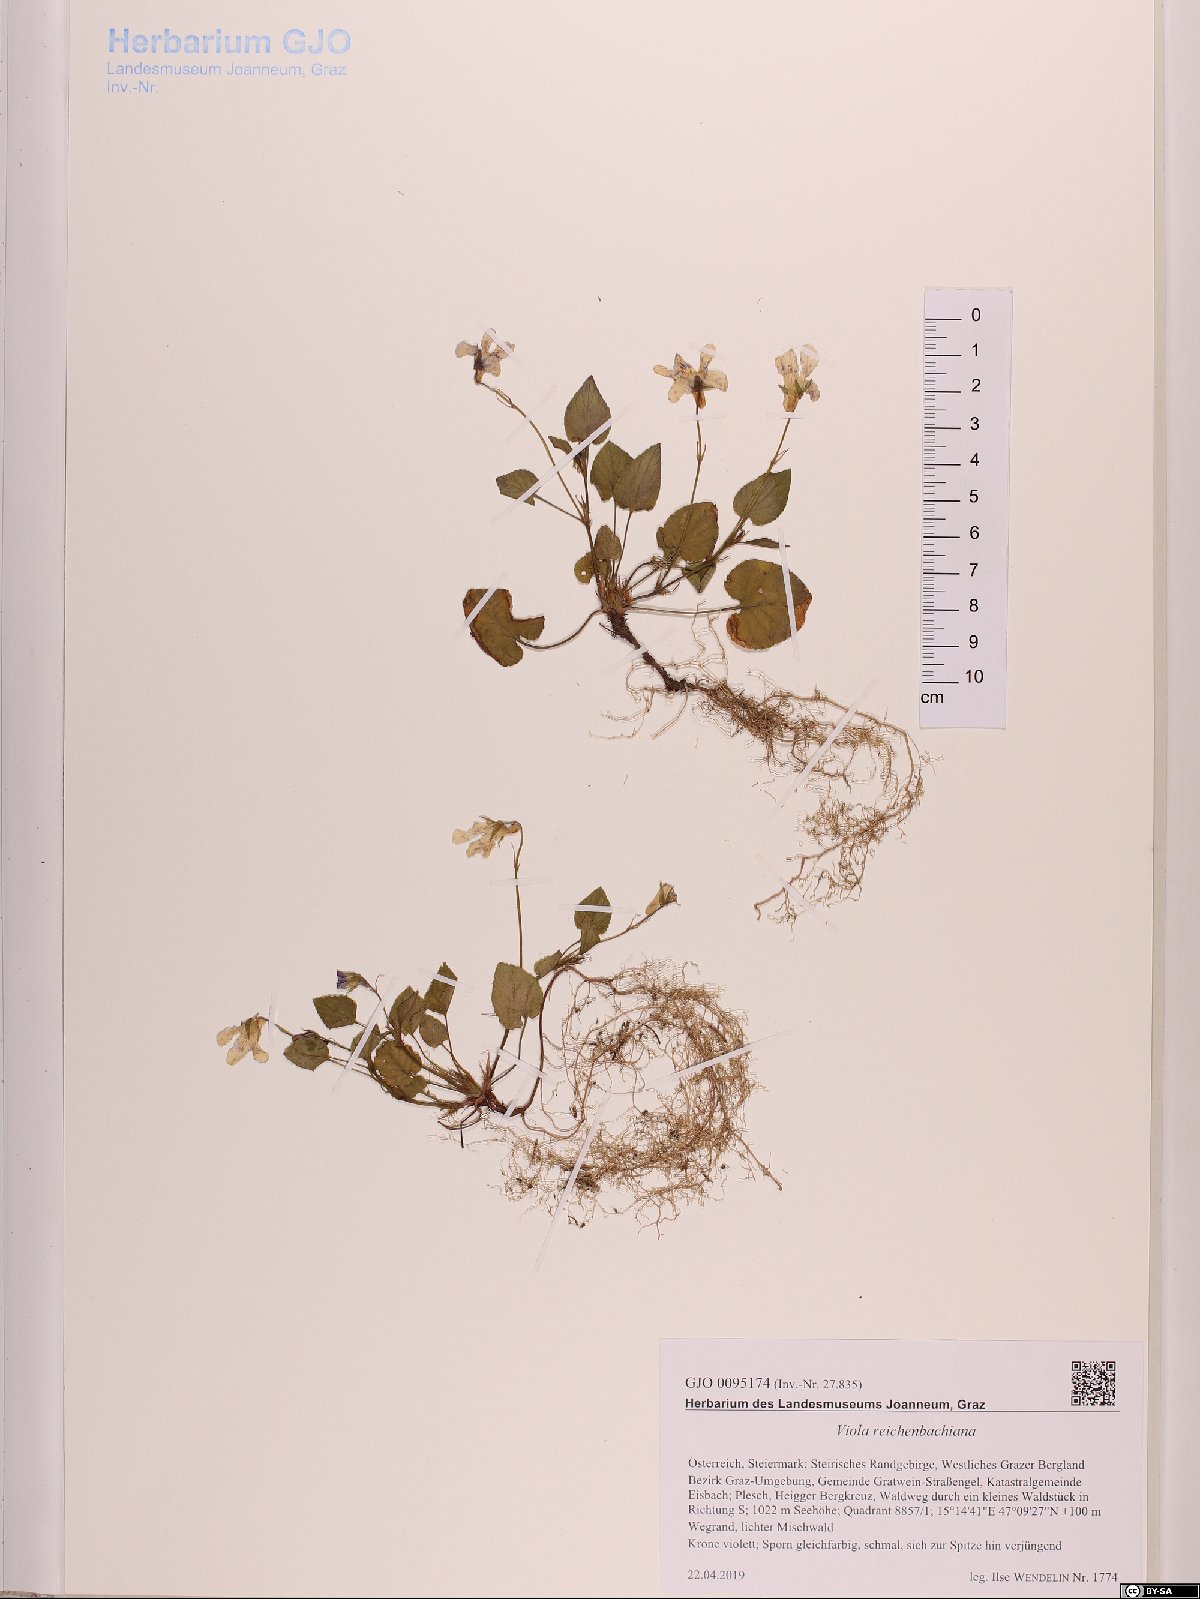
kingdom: Plantae
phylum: Tracheophyta
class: Magnoliopsida
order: Malpighiales
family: Violaceae
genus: Viola
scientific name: Viola reichenbachiana
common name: Early dog-violet
